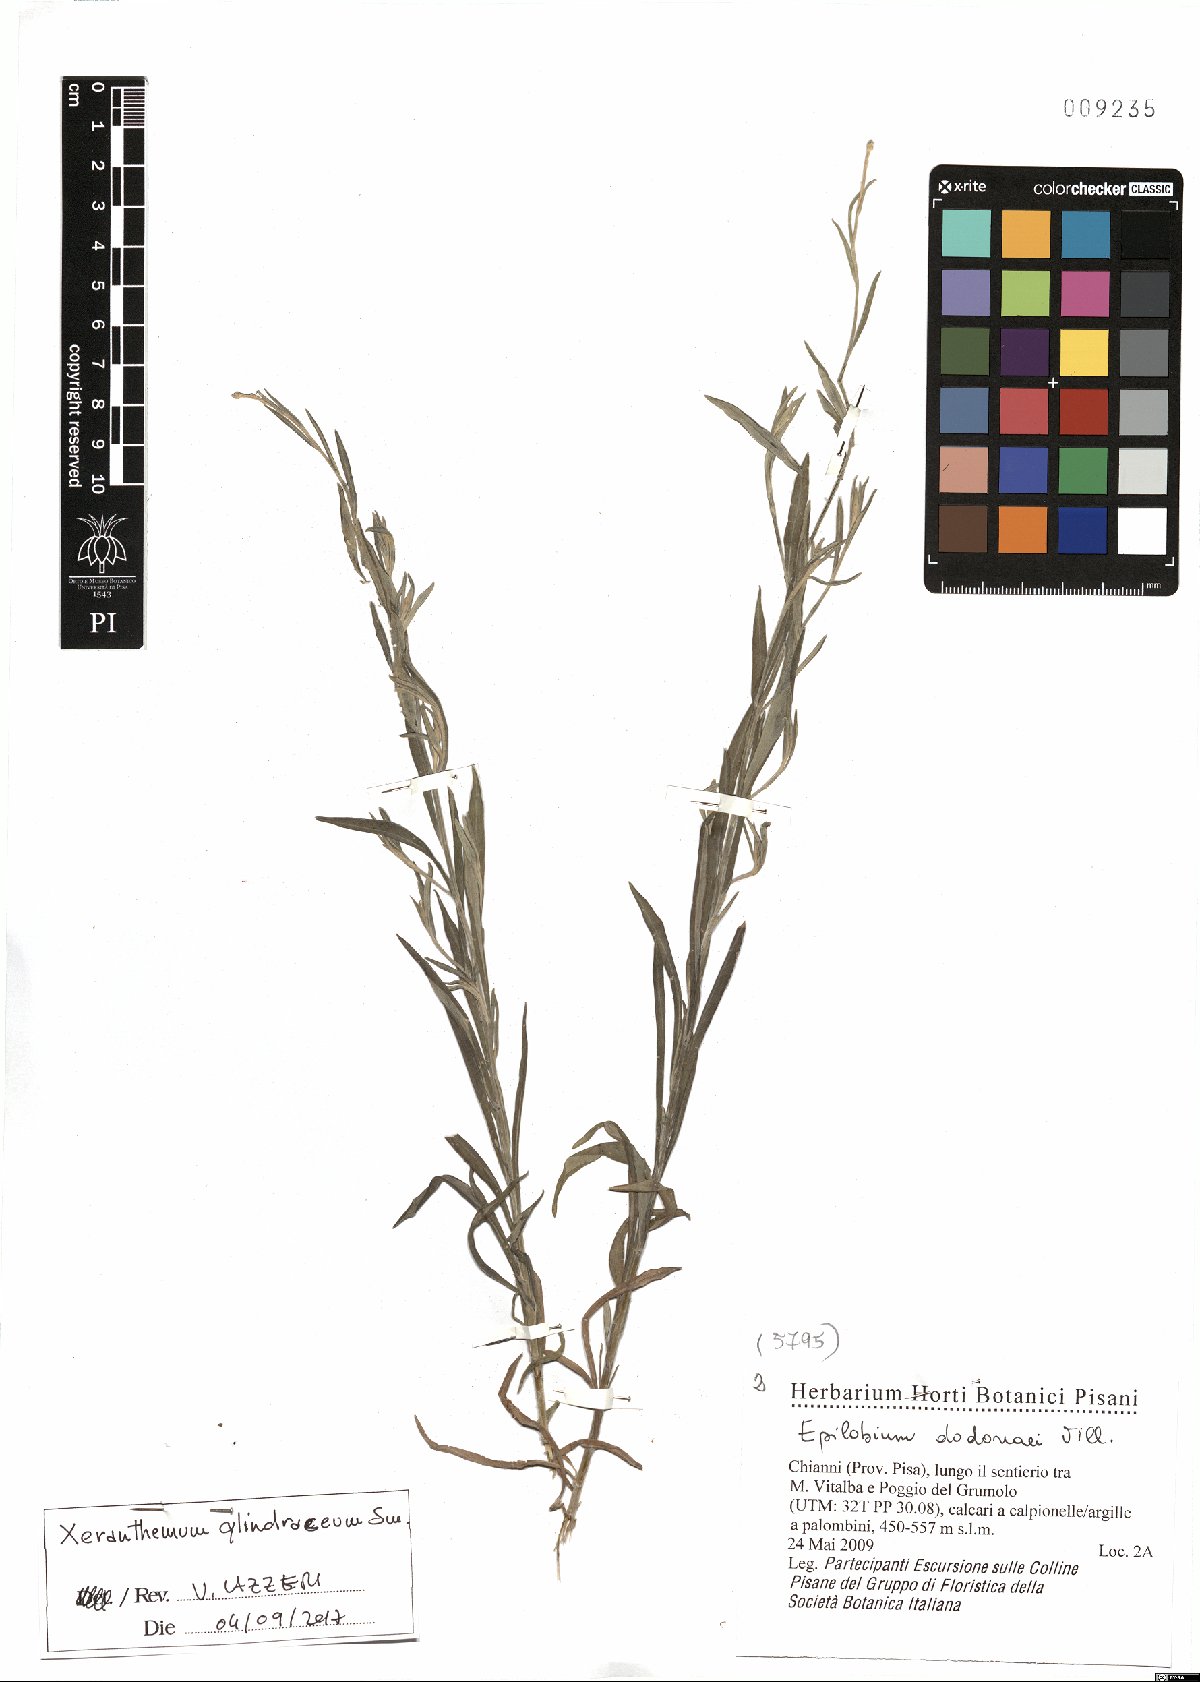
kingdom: Plantae
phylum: Tracheophyta
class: Magnoliopsida
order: Asterales
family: Asteraceae
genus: Xeranthemum
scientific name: Xeranthemum cylindraceum
